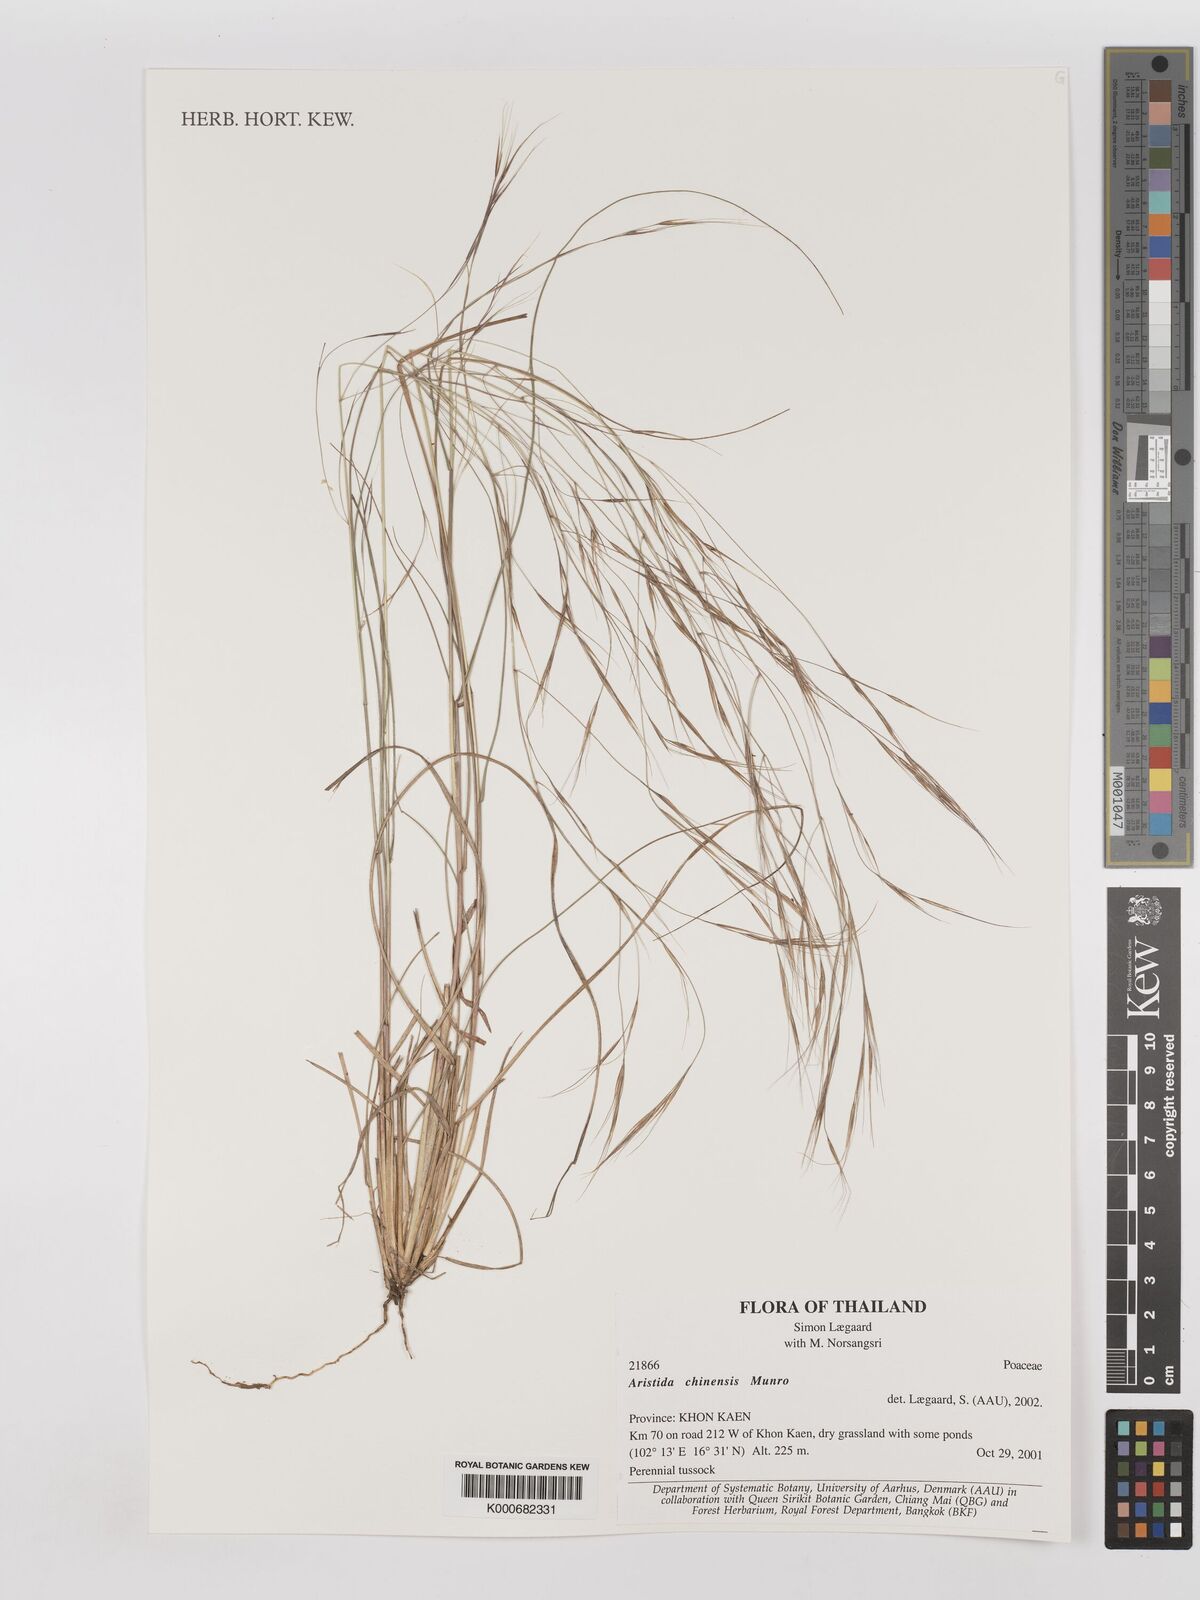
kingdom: Plantae
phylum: Tracheophyta
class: Liliopsida
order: Poales
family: Poaceae
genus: Aristida
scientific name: Aristida chinensis
